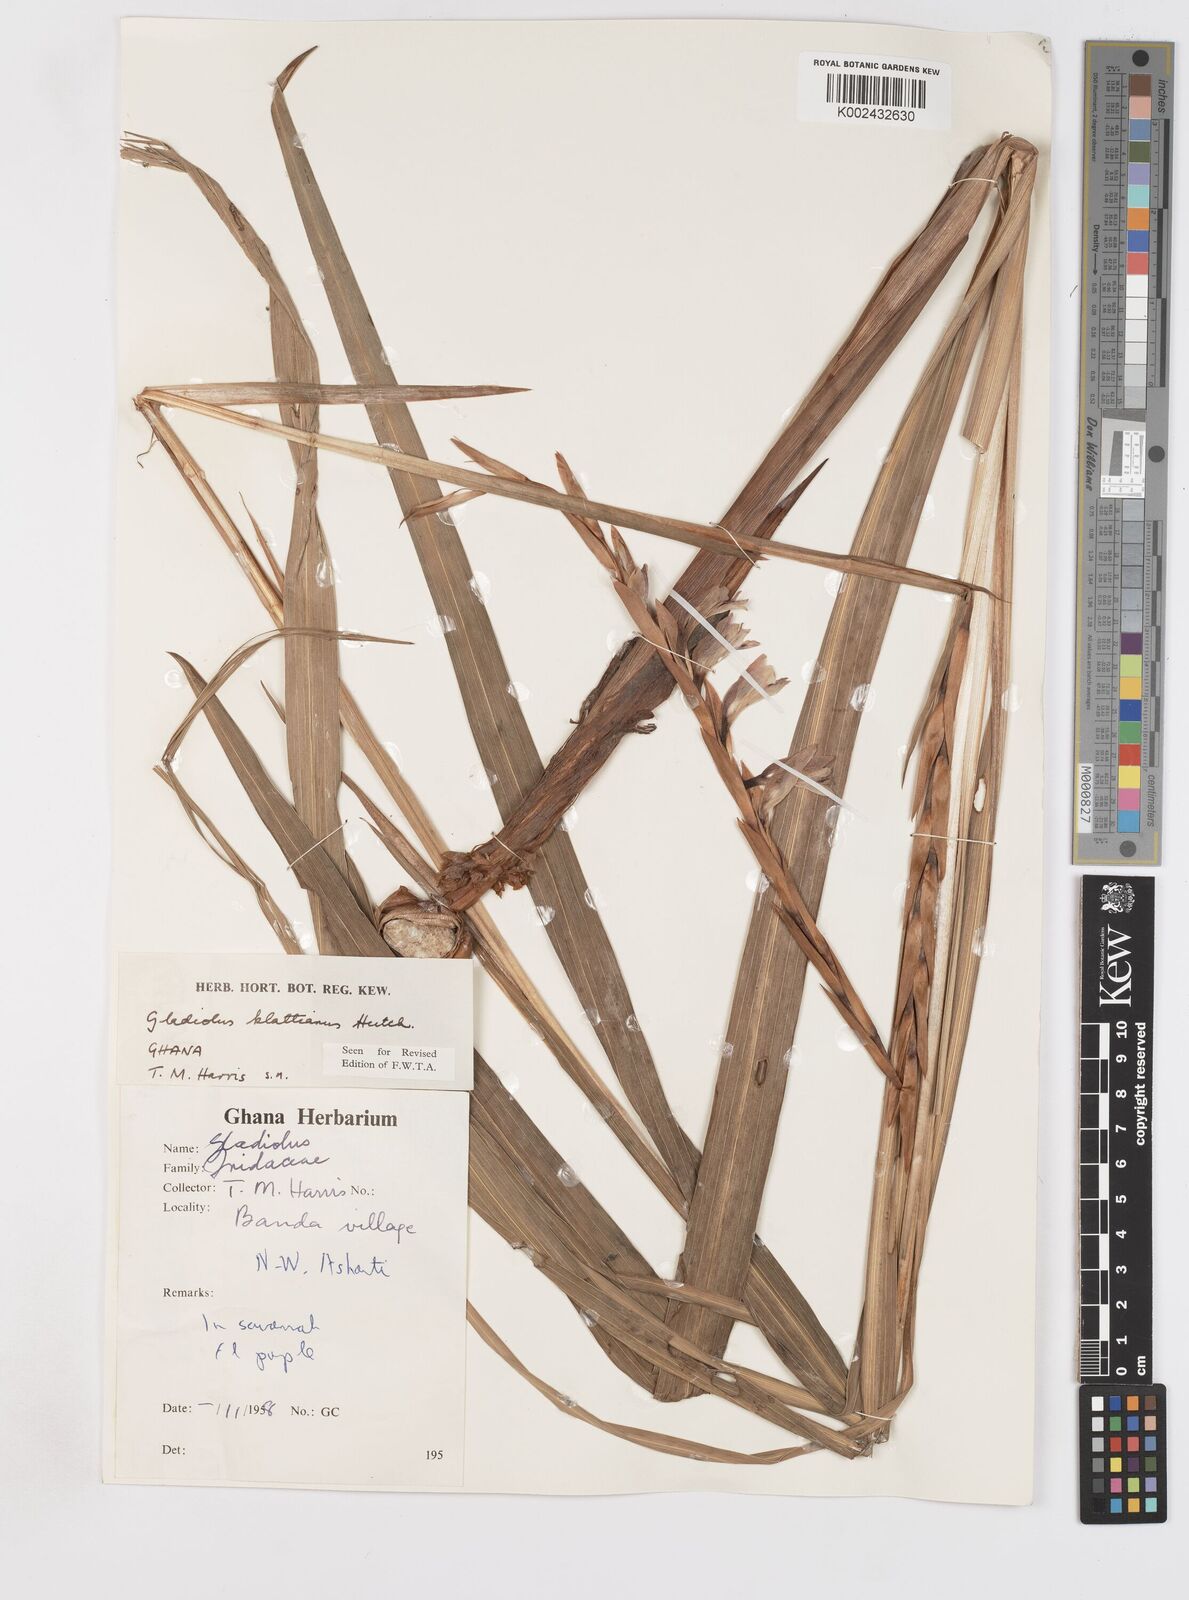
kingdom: Plantae
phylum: Tracheophyta
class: Liliopsida
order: Asparagales
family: Iridaceae
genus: Gladiolus
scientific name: Gladiolus gregarius
